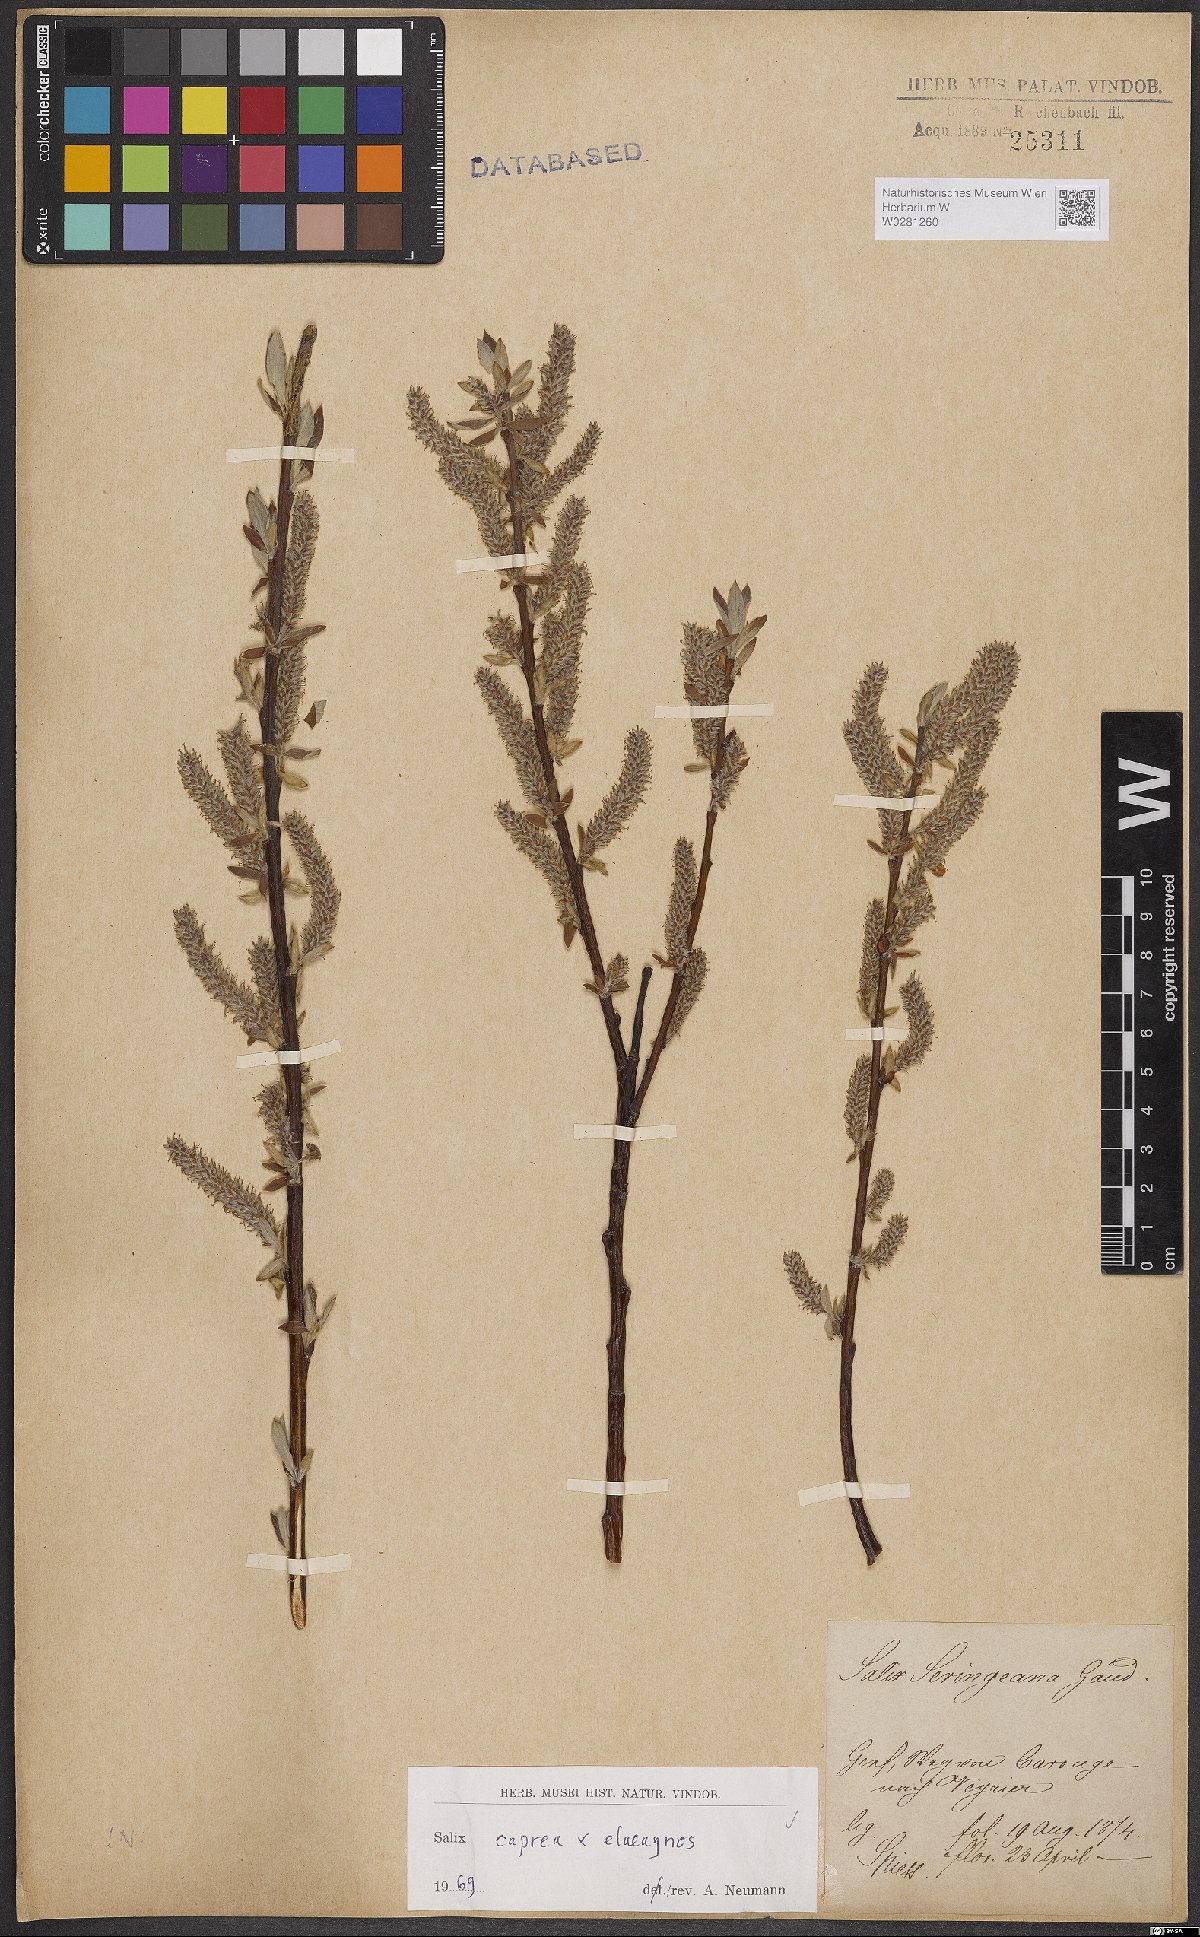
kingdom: Plantae
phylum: Tracheophyta
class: Magnoliopsida
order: Malpighiales
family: Salicaceae
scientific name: Salicaceae
